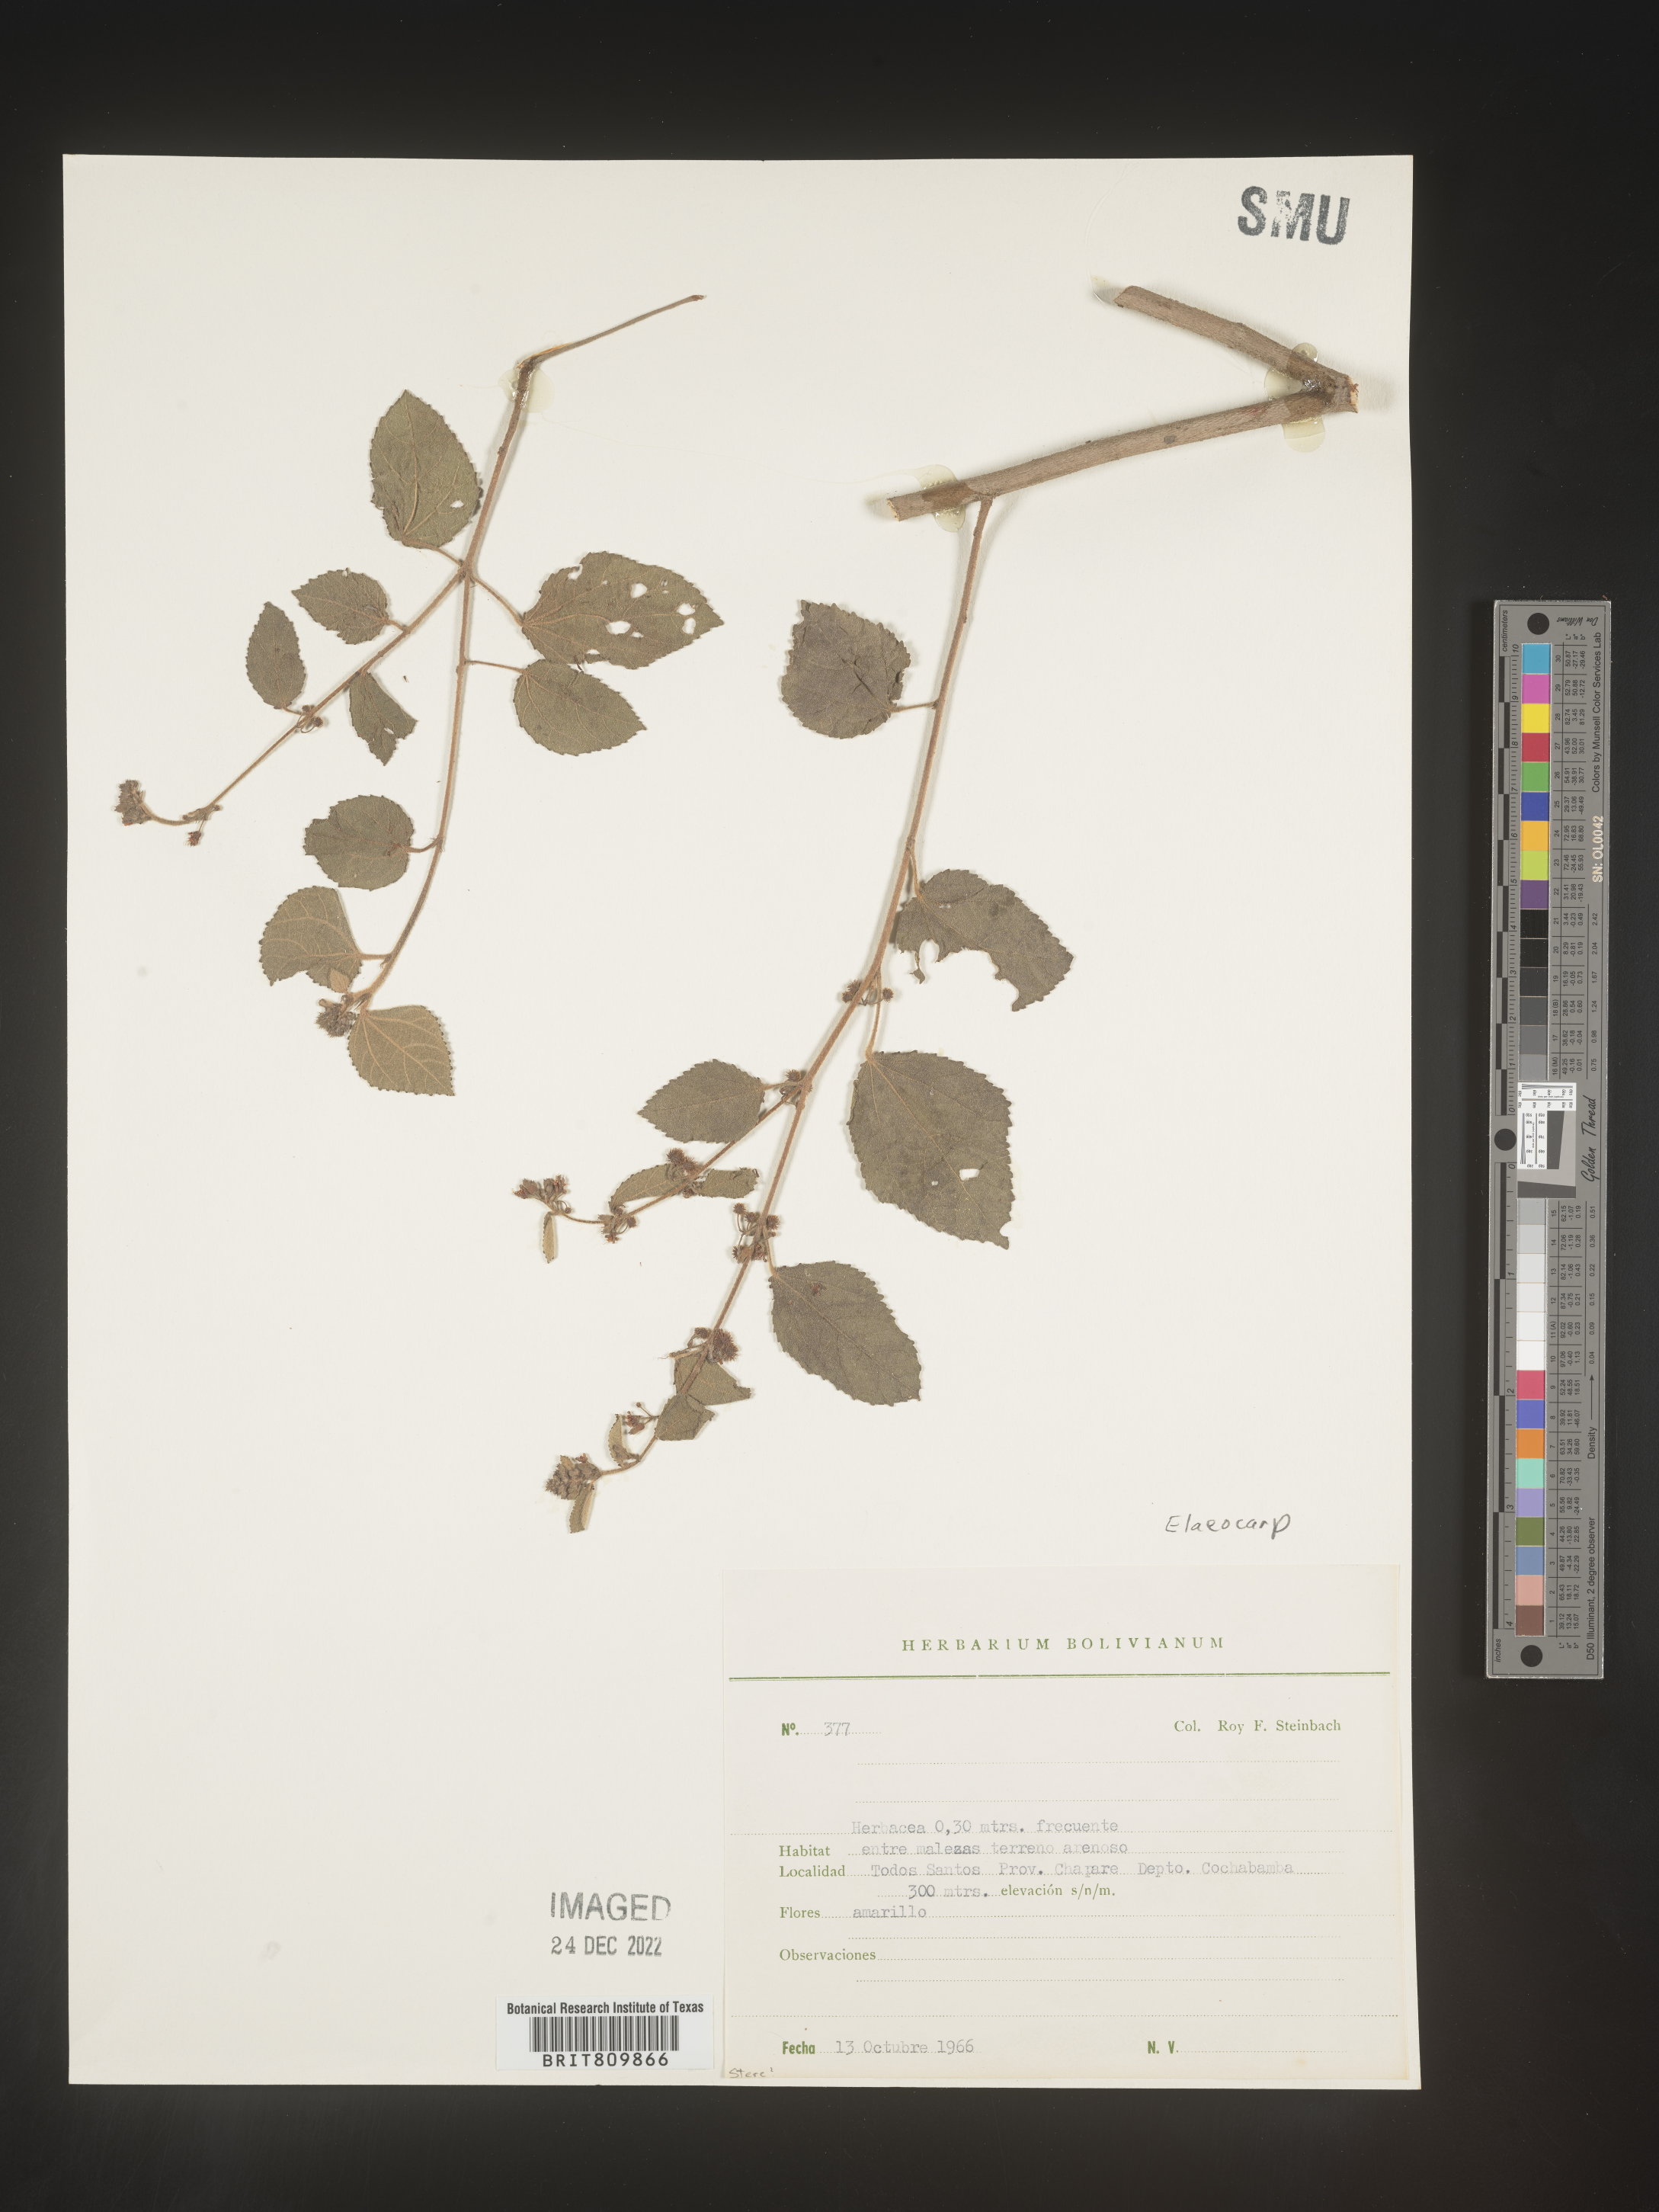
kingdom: Plantae
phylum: Tracheophyta
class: Magnoliopsida
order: Oxalidales
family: Elaeocarpaceae
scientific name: Elaeocarpaceae
